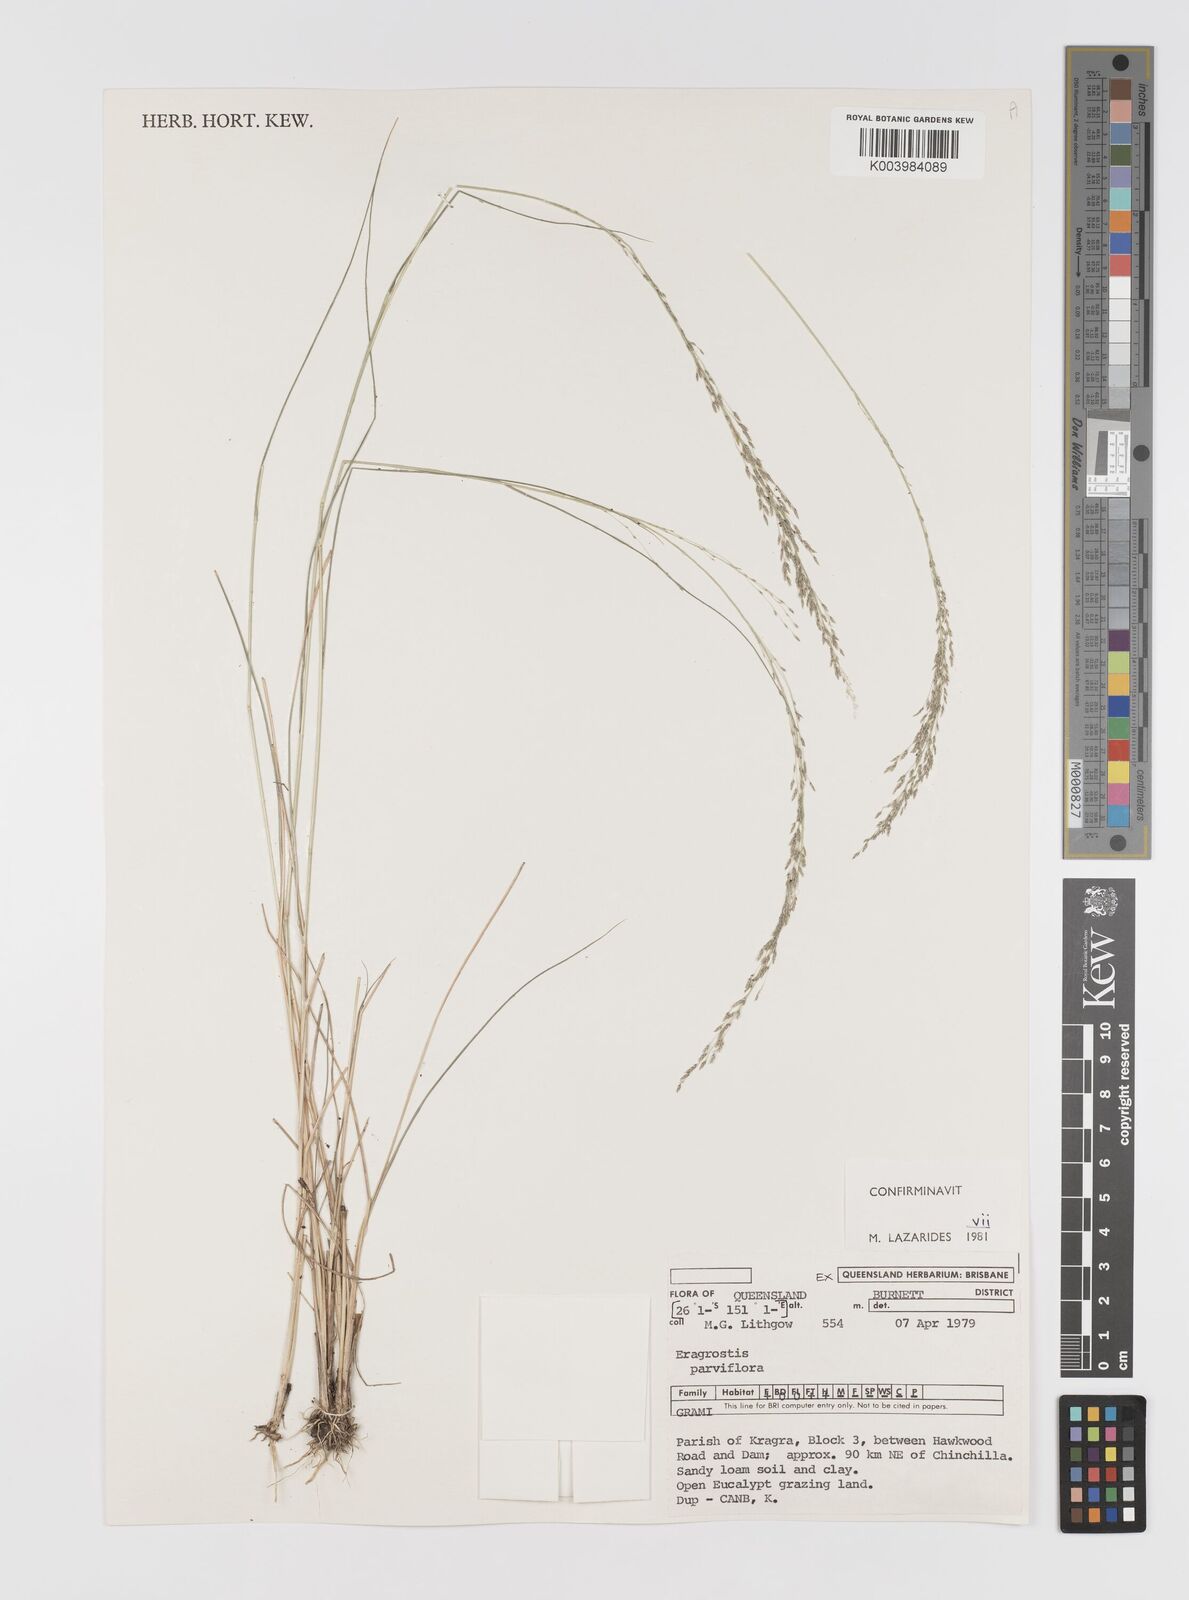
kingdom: Plantae
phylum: Tracheophyta
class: Liliopsida
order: Poales
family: Poaceae
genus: Eragrostis
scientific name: Eragrostis parviflora
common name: Weeping love-grass
